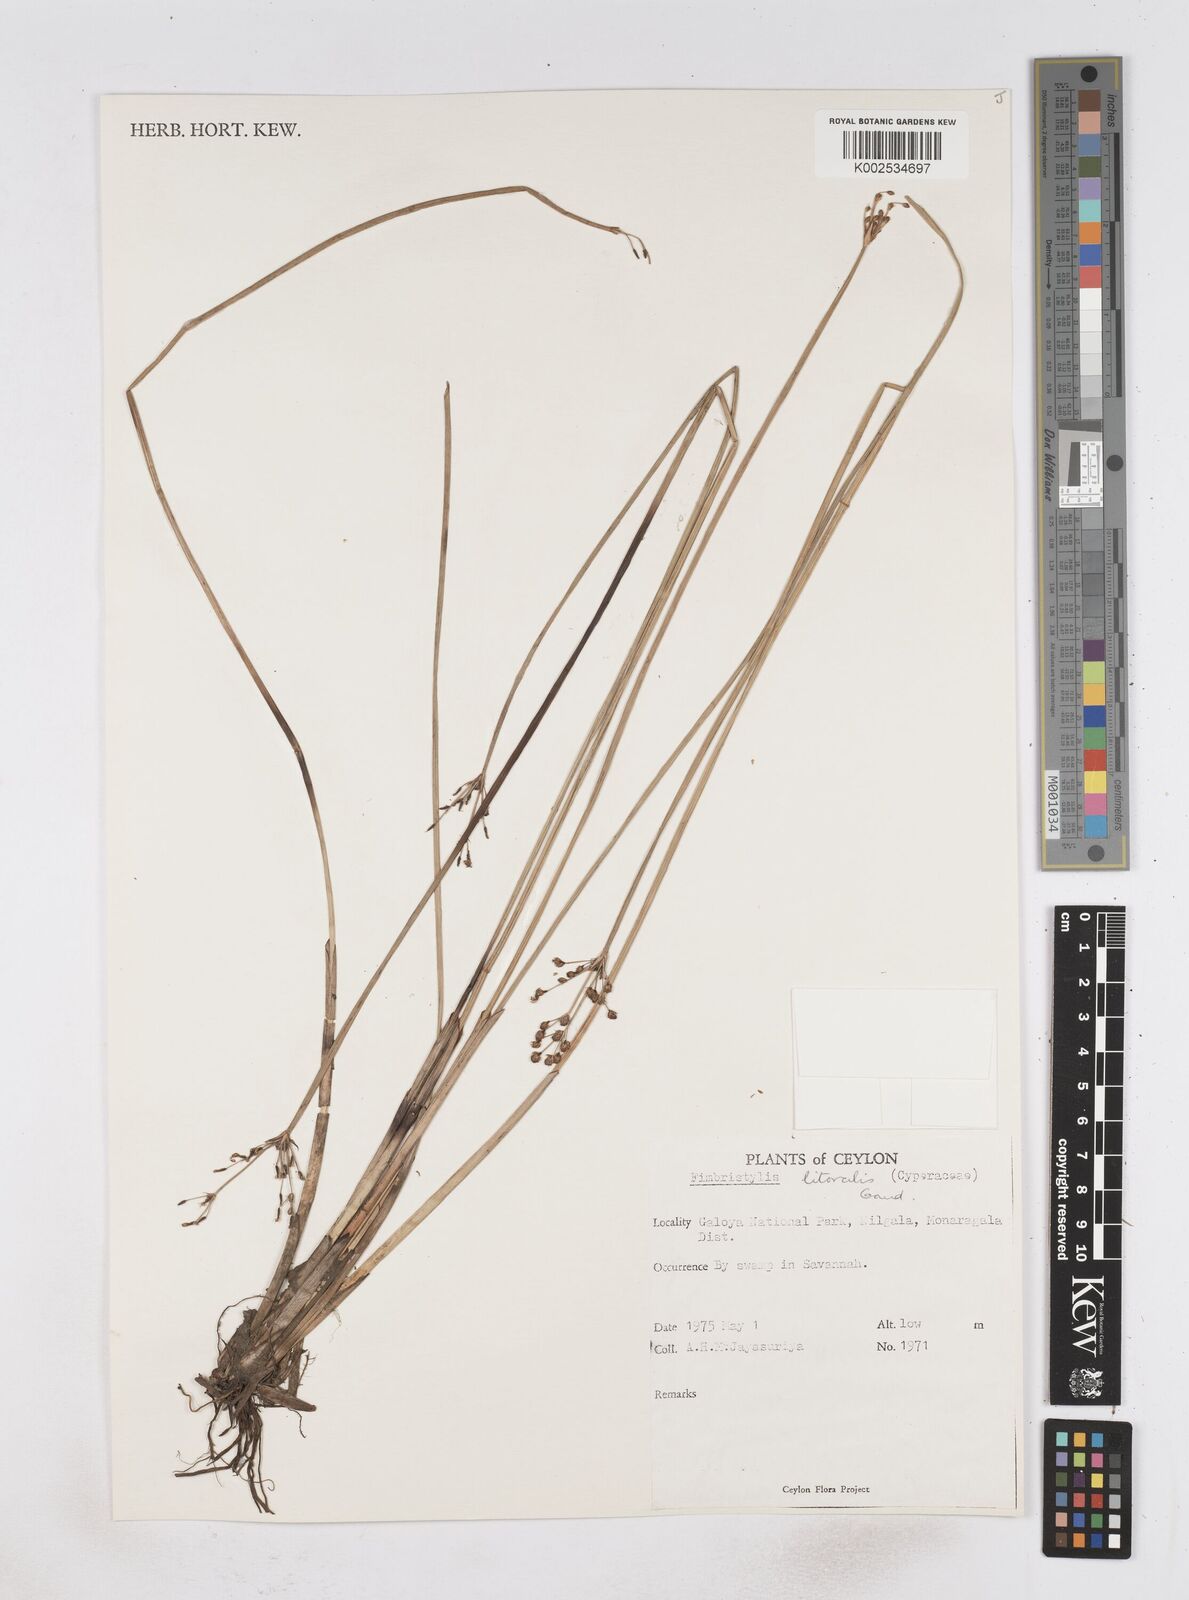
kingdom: Plantae
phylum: Tracheophyta
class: Liliopsida
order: Poales
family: Cyperaceae
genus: Fimbristylis
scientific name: Fimbristylis littoralis
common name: Fimbry
